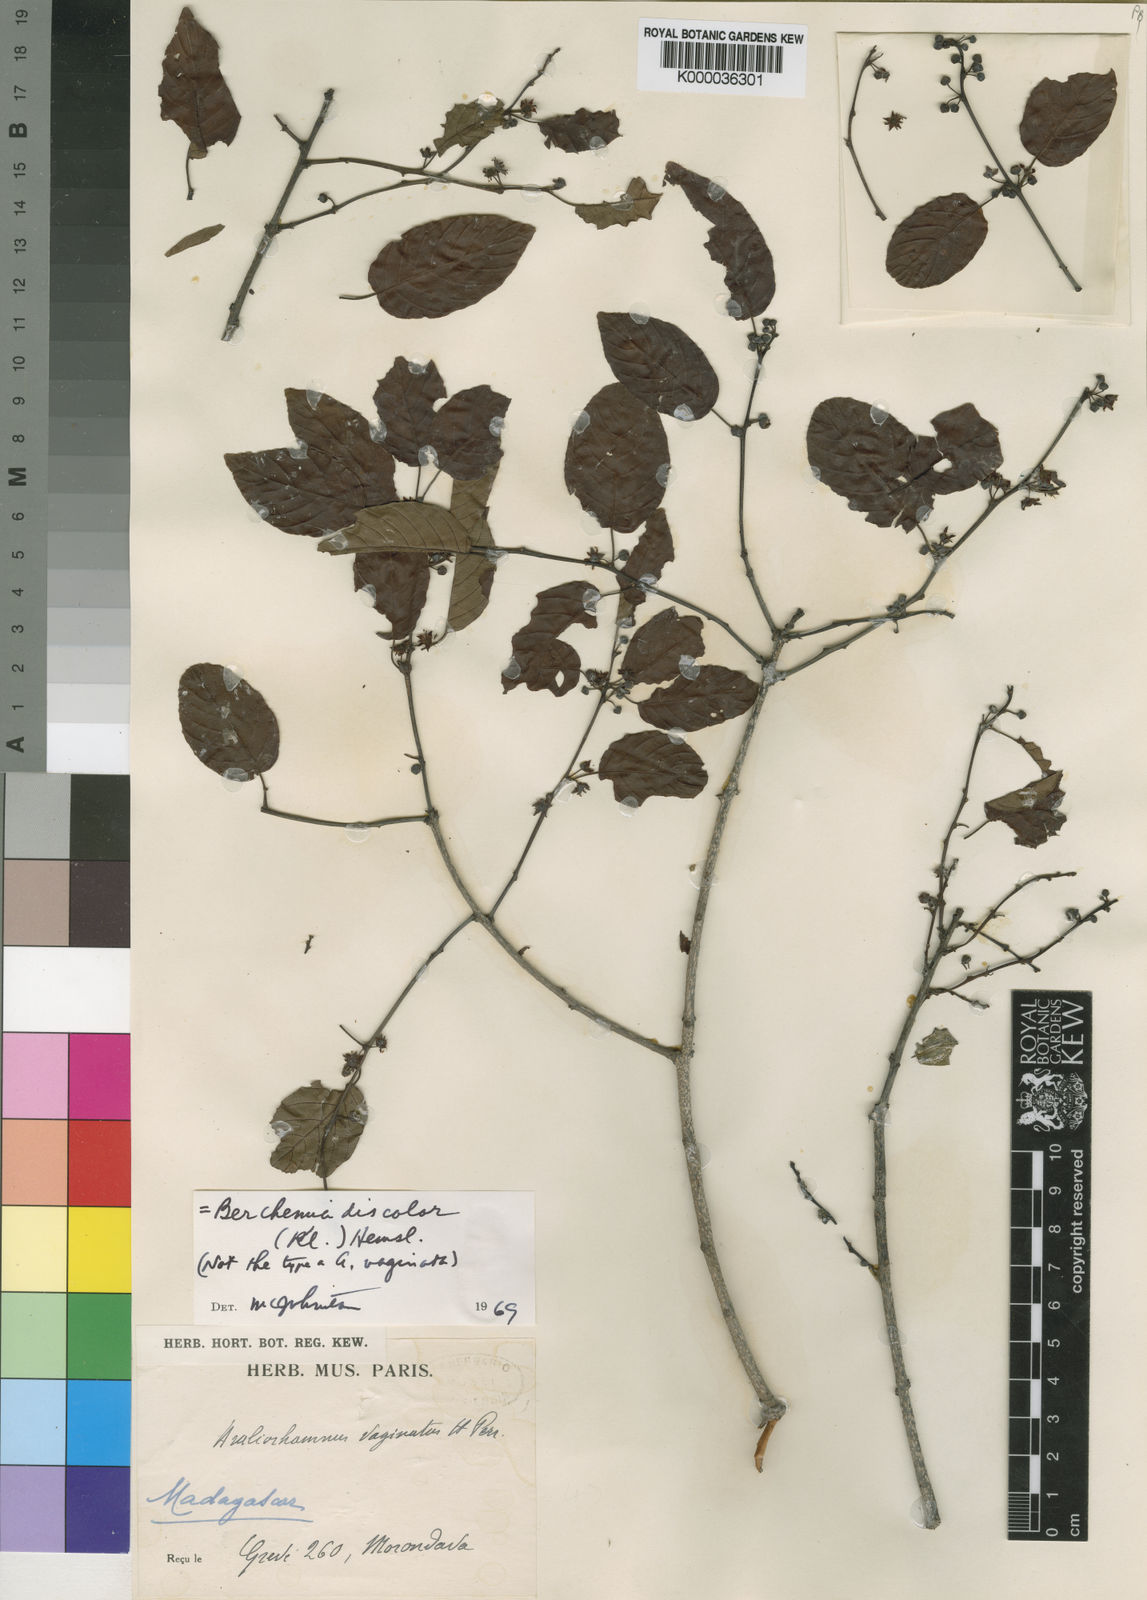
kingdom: Plantae
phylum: Tracheophyta
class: Magnoliopsida
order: Rosales
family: Rhamnaceae
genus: Phyllogeiton
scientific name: Phyllogeiton discolor
